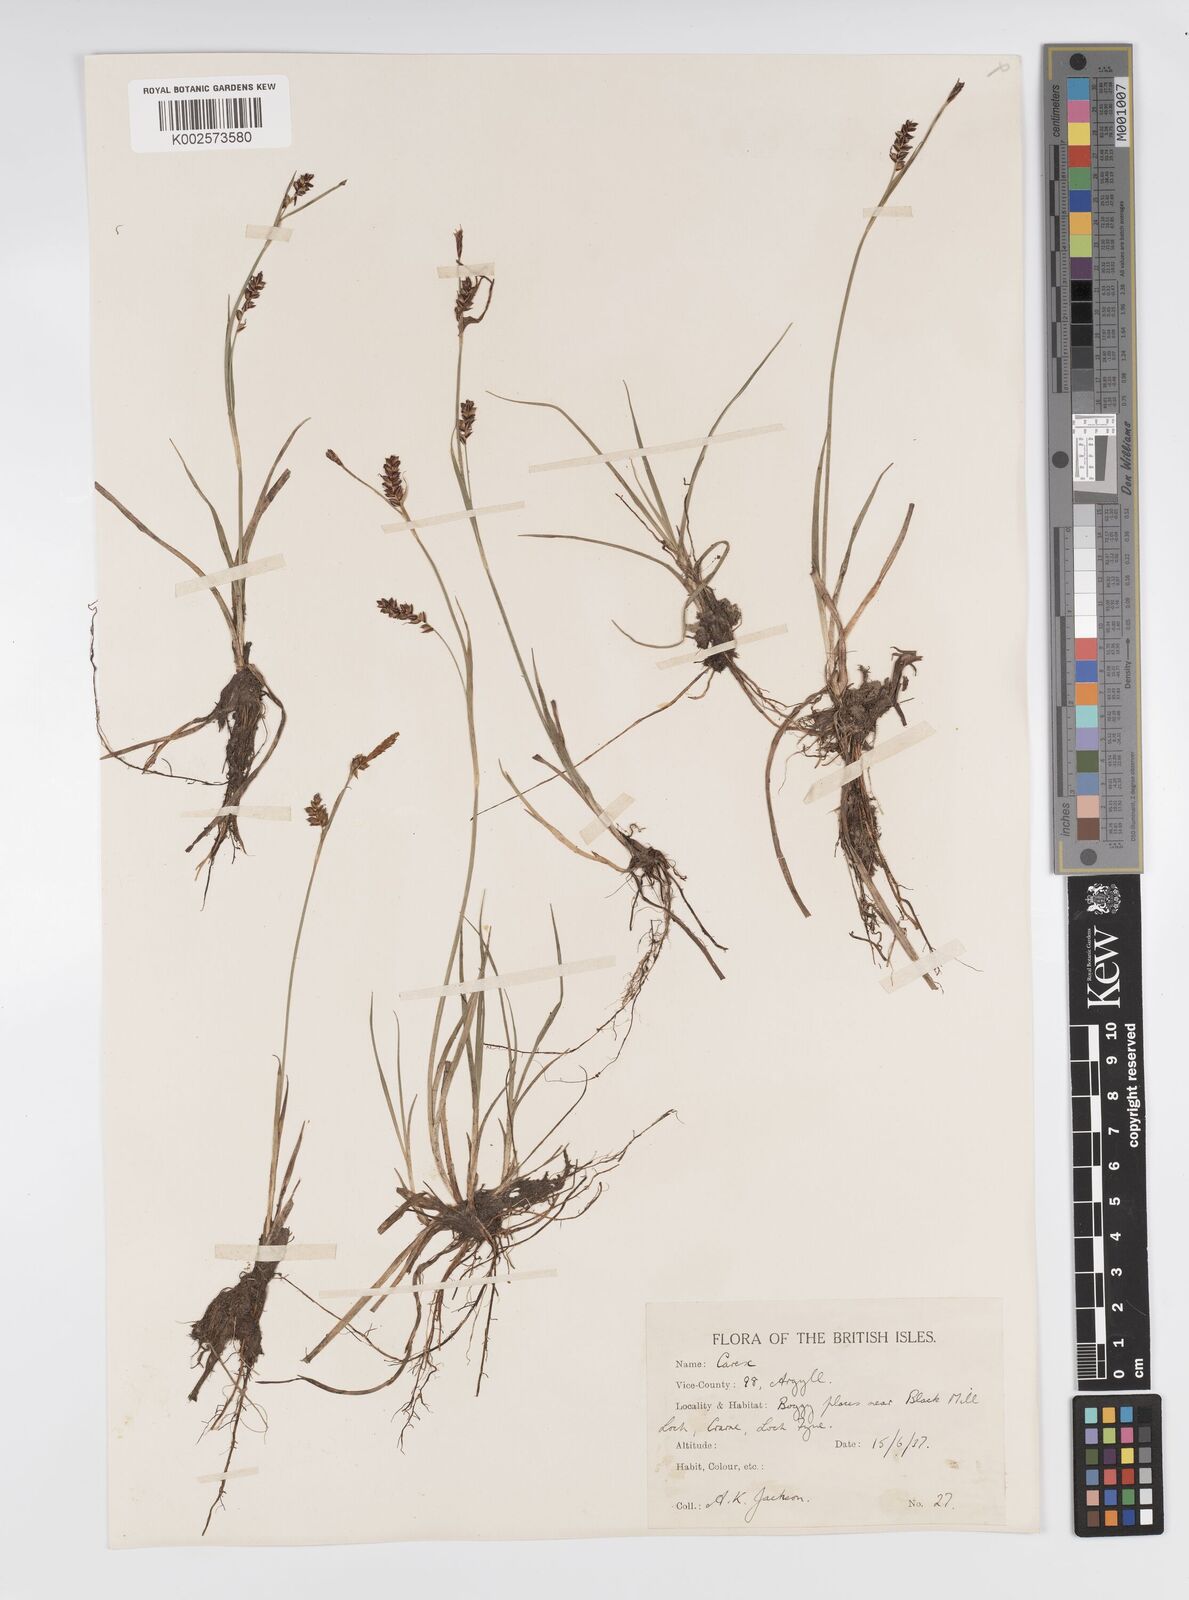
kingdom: Plantae
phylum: Tracheophyta
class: Liliopsida
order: Poales
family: Cyperaceae
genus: Carex
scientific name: Carex panicea
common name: Carnation sedge
